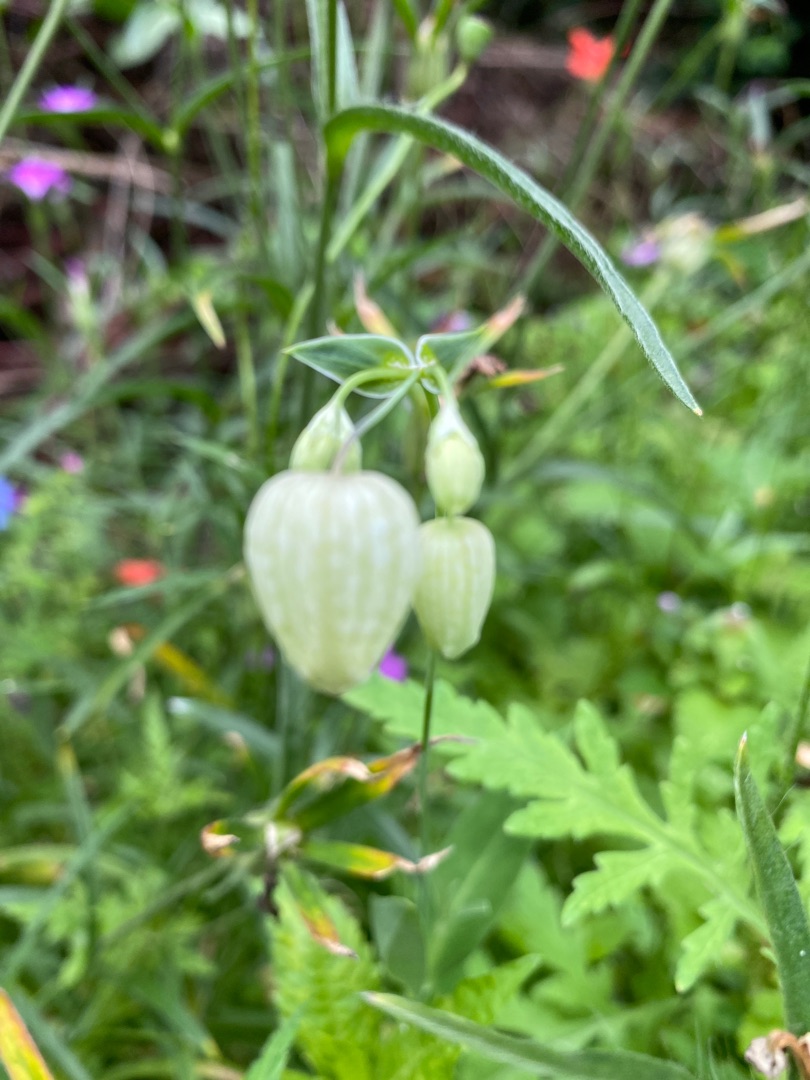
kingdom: Plantae
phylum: Tracheophyta
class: Magnoliopsida
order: Caryophyllales
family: Caryophyllaceae
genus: Silene
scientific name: Silene vulgaris
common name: Blæresmælde
